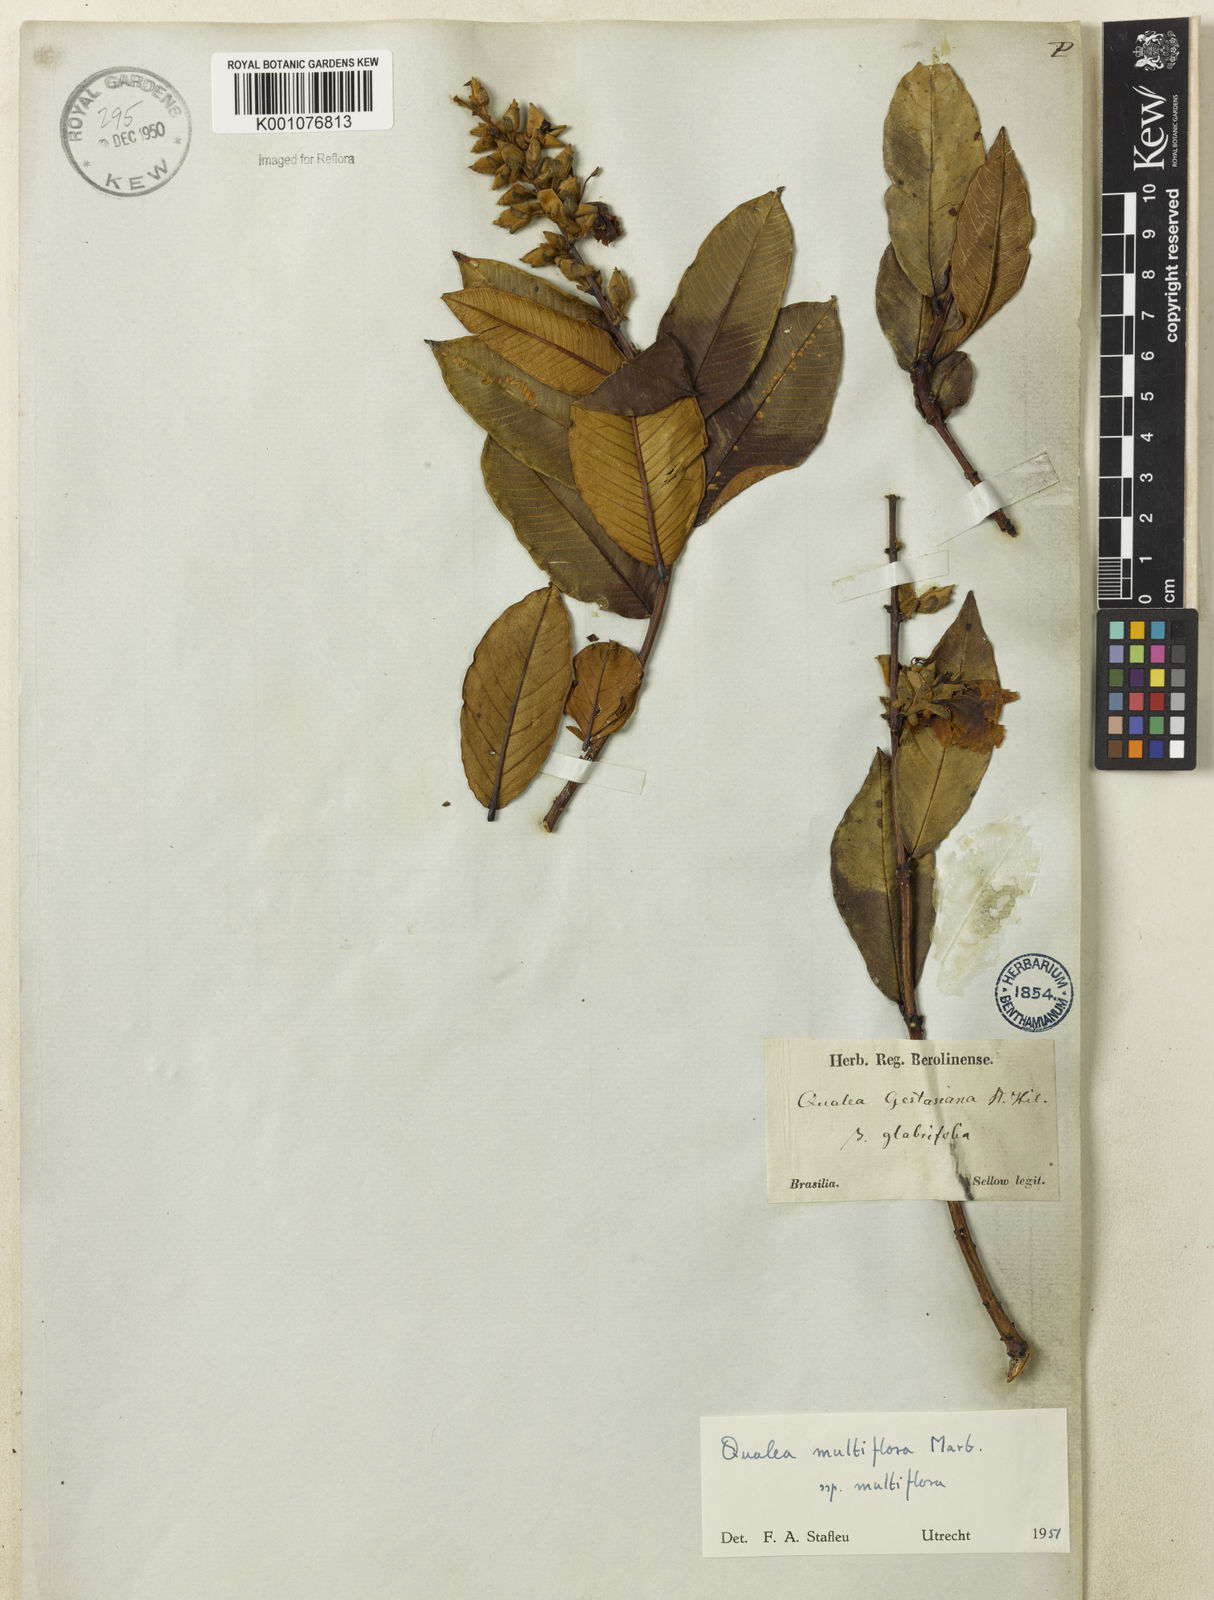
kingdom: Plantae
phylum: Tracheophyta
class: Magnoliopsida
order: Myrtales
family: Vochysiaceae
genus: Qualea
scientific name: Qualea multiflora
